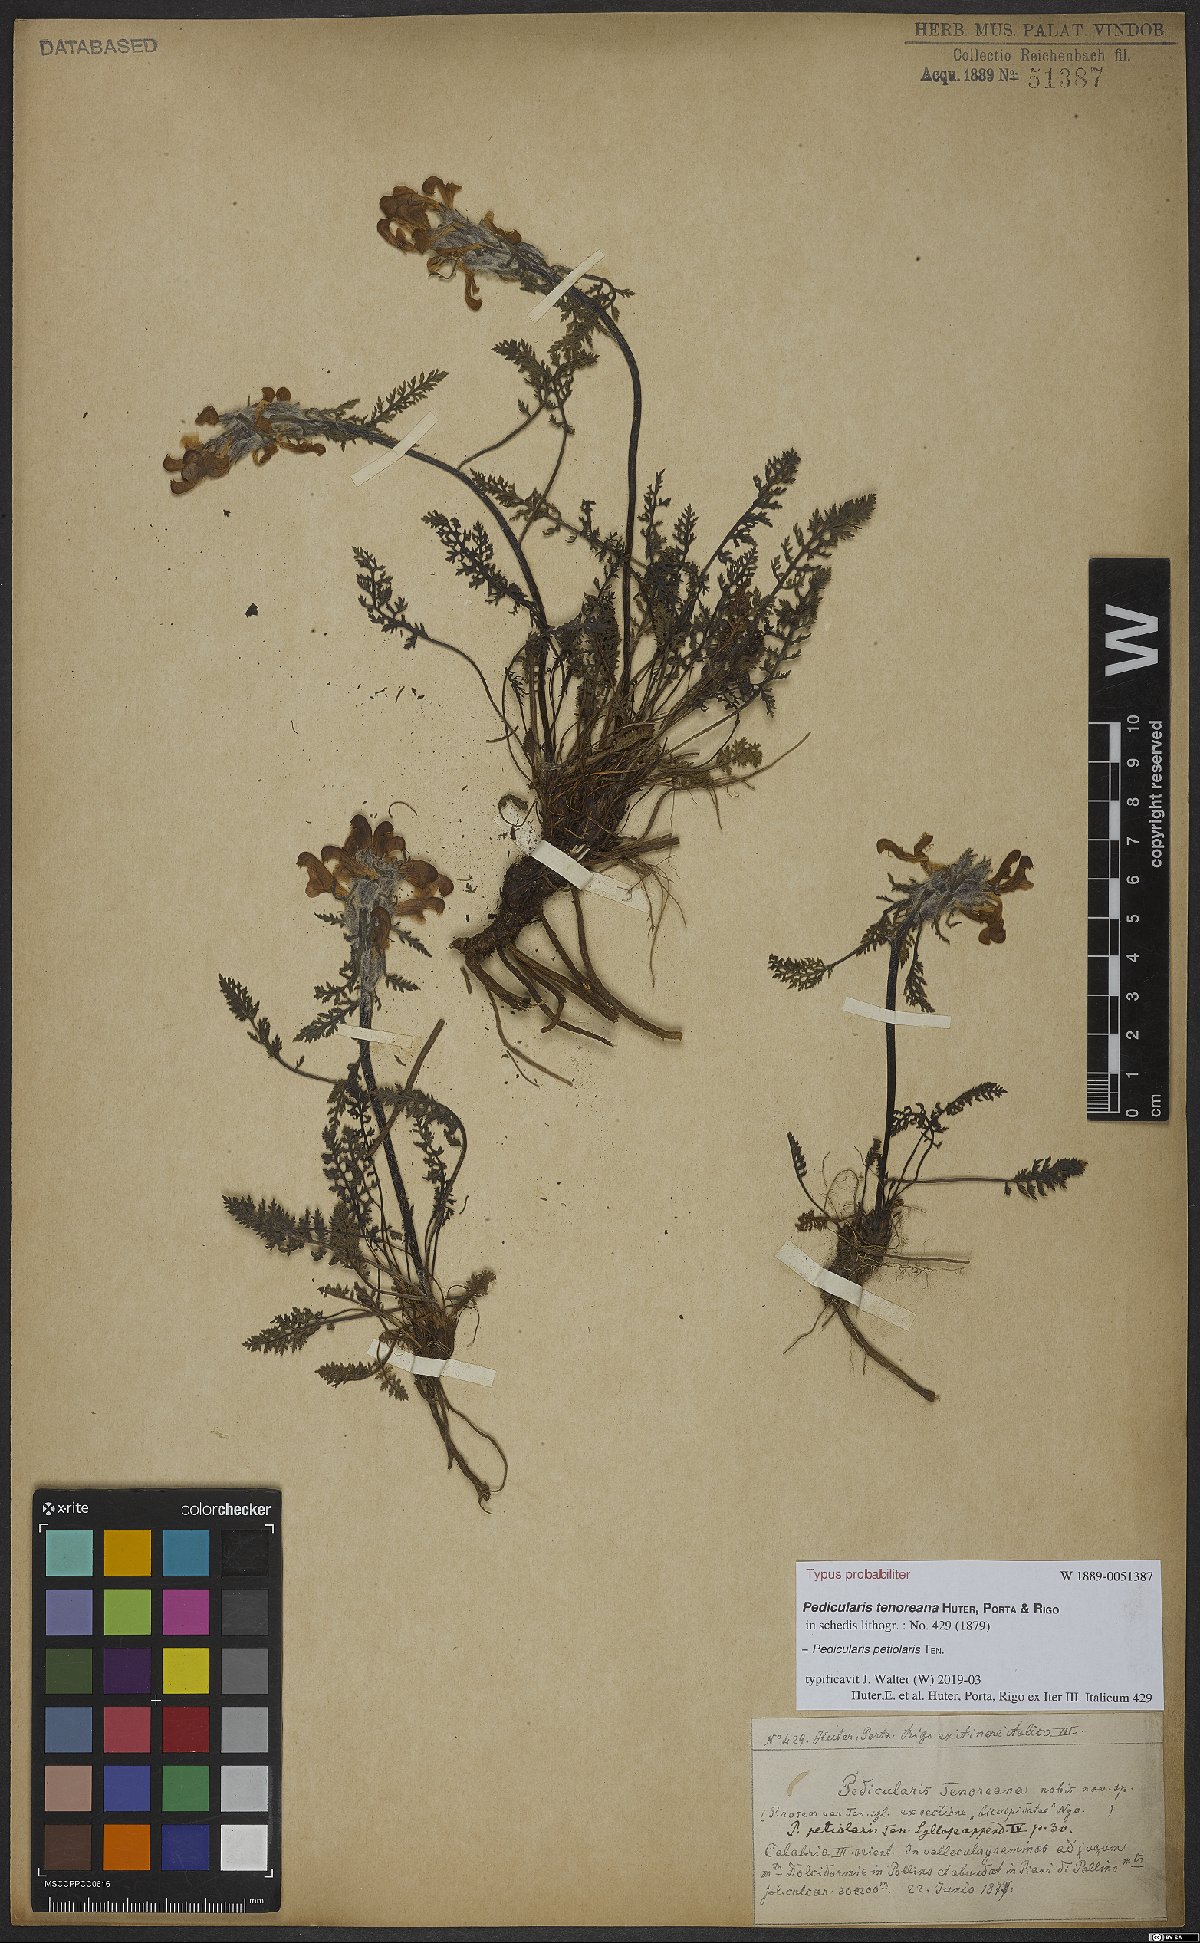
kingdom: Plantae
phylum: Tracheophyta
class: Magnoliopsida
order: Lamiales
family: Orobanchaceae
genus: Pedicularis
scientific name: Pedicularis petiolaris
